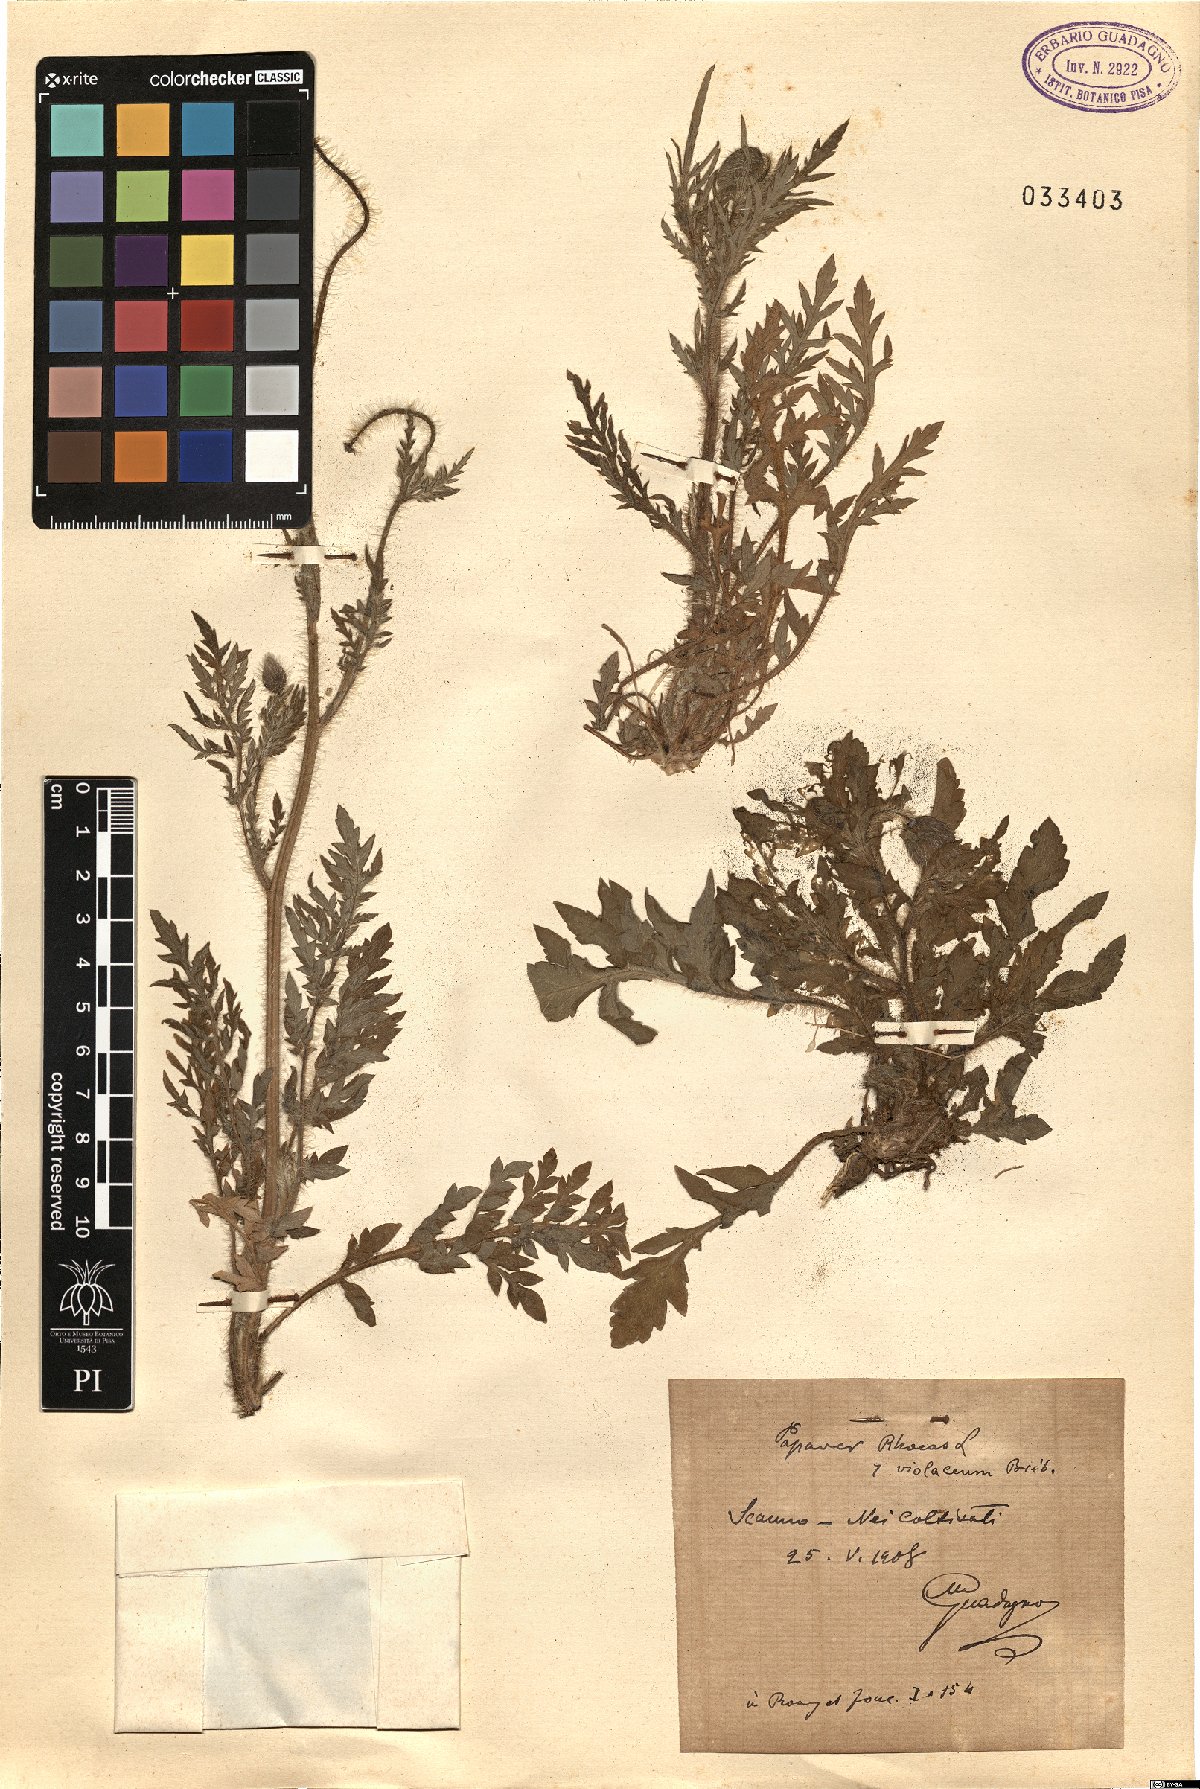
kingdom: Plantae
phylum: Tracheophyta
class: Magnoliopsida
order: Ranunculales
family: Papaveraceae
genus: Papaver
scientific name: Papaver rhoeas
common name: Corn poppy
